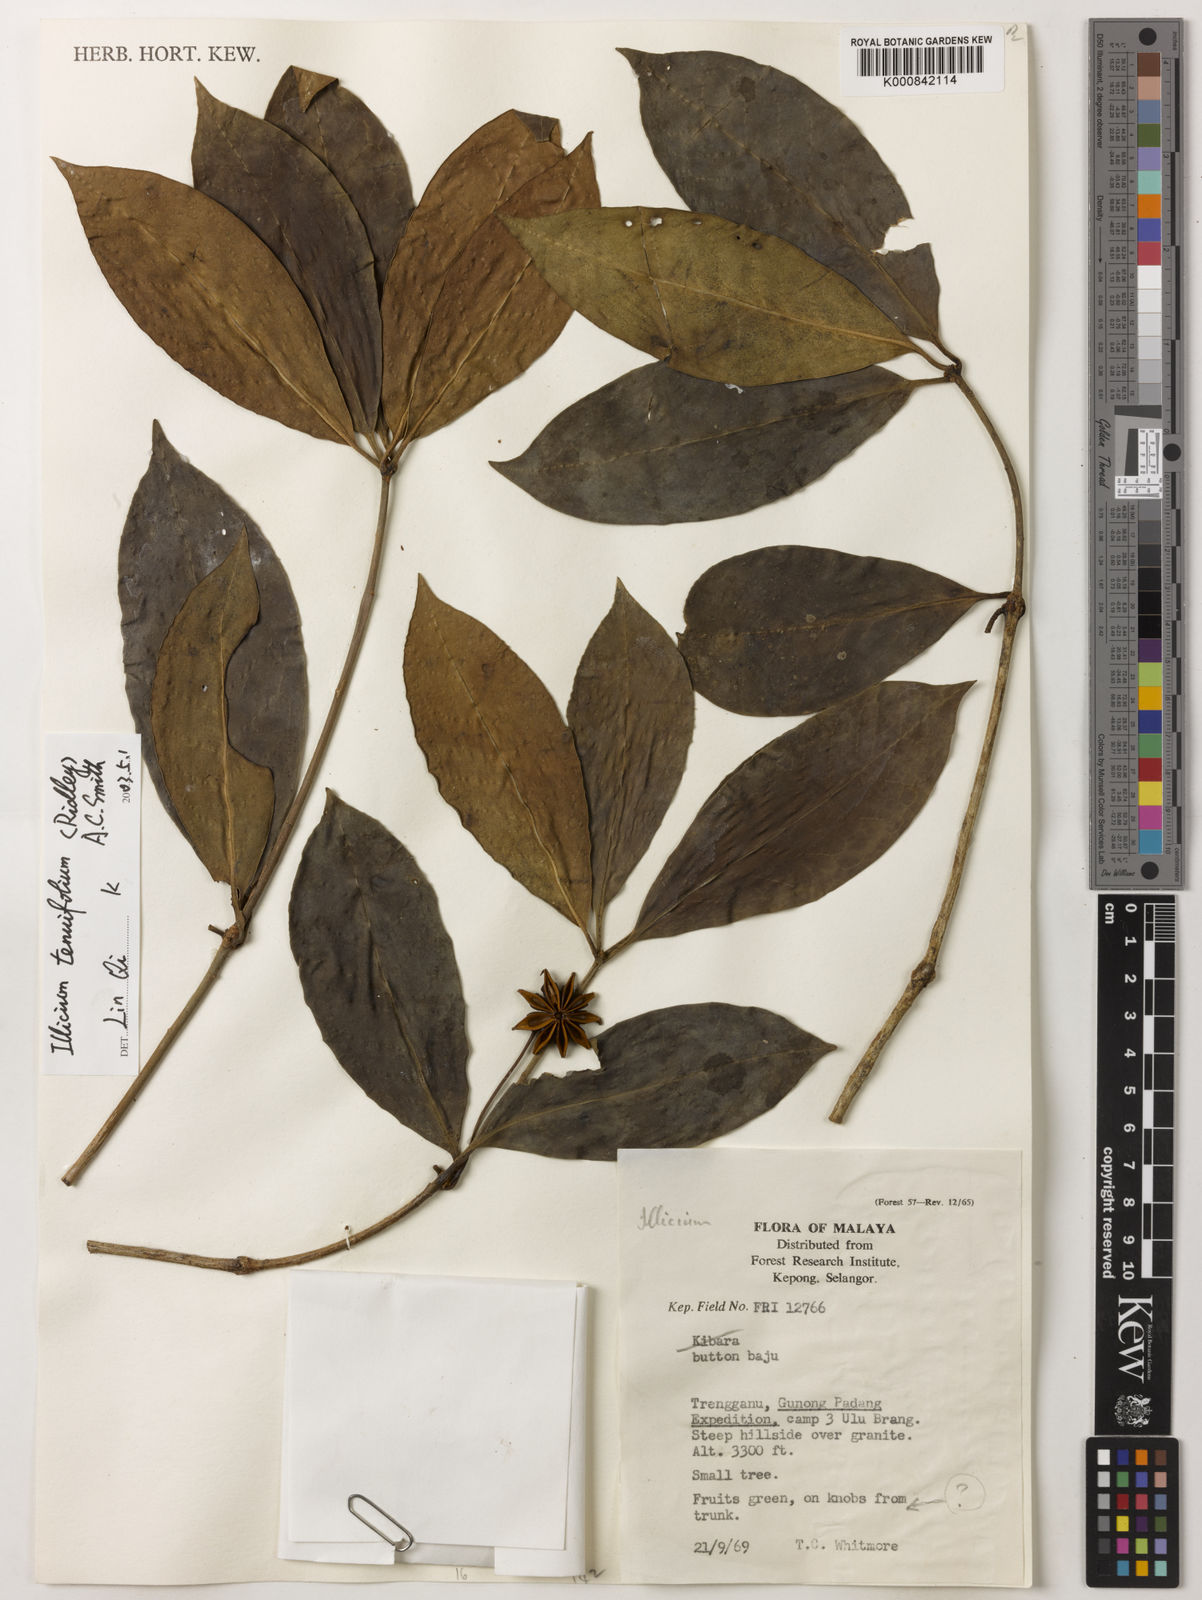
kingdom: Plantae
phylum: Tracheophyta
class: Magnoliopsida
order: Austrobaileyales
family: Schisandraceae
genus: Illicium
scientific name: Illicium tenuifolium
